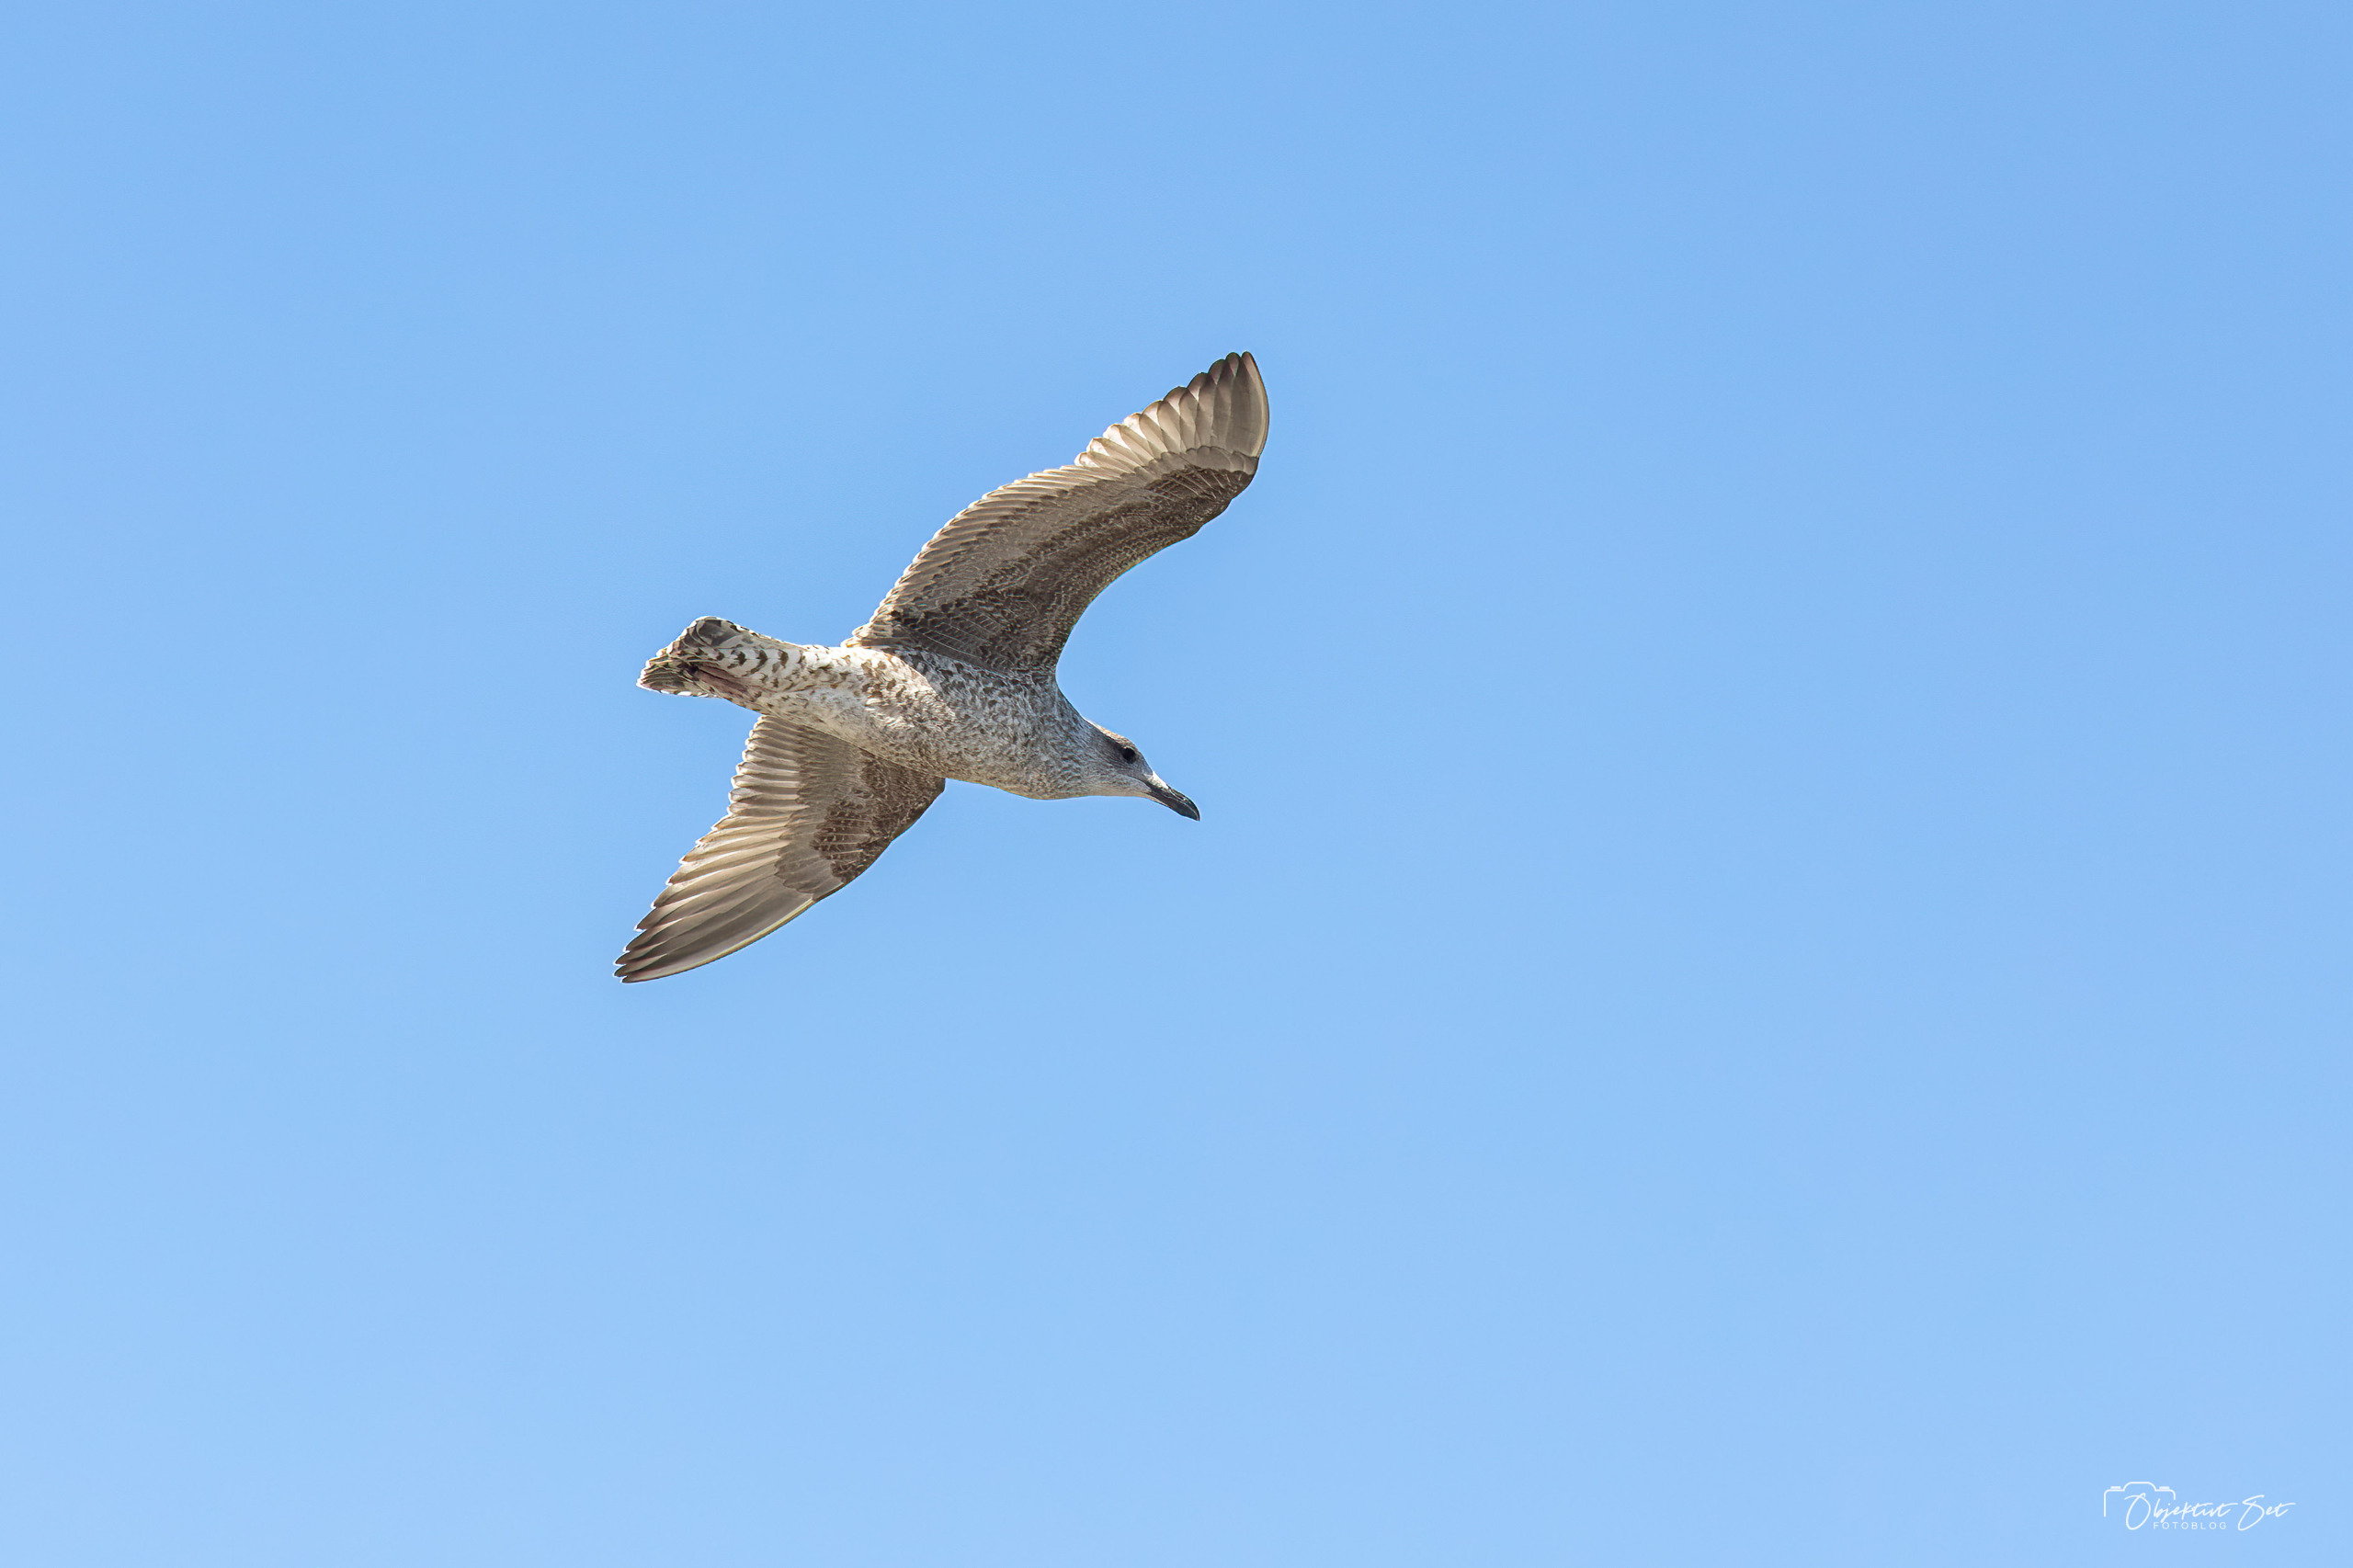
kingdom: Animalia
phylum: Chordata
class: Aves
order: Charadriiformes
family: Laridae
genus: Larus
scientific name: Larus argentatus
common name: Sølvmåge
